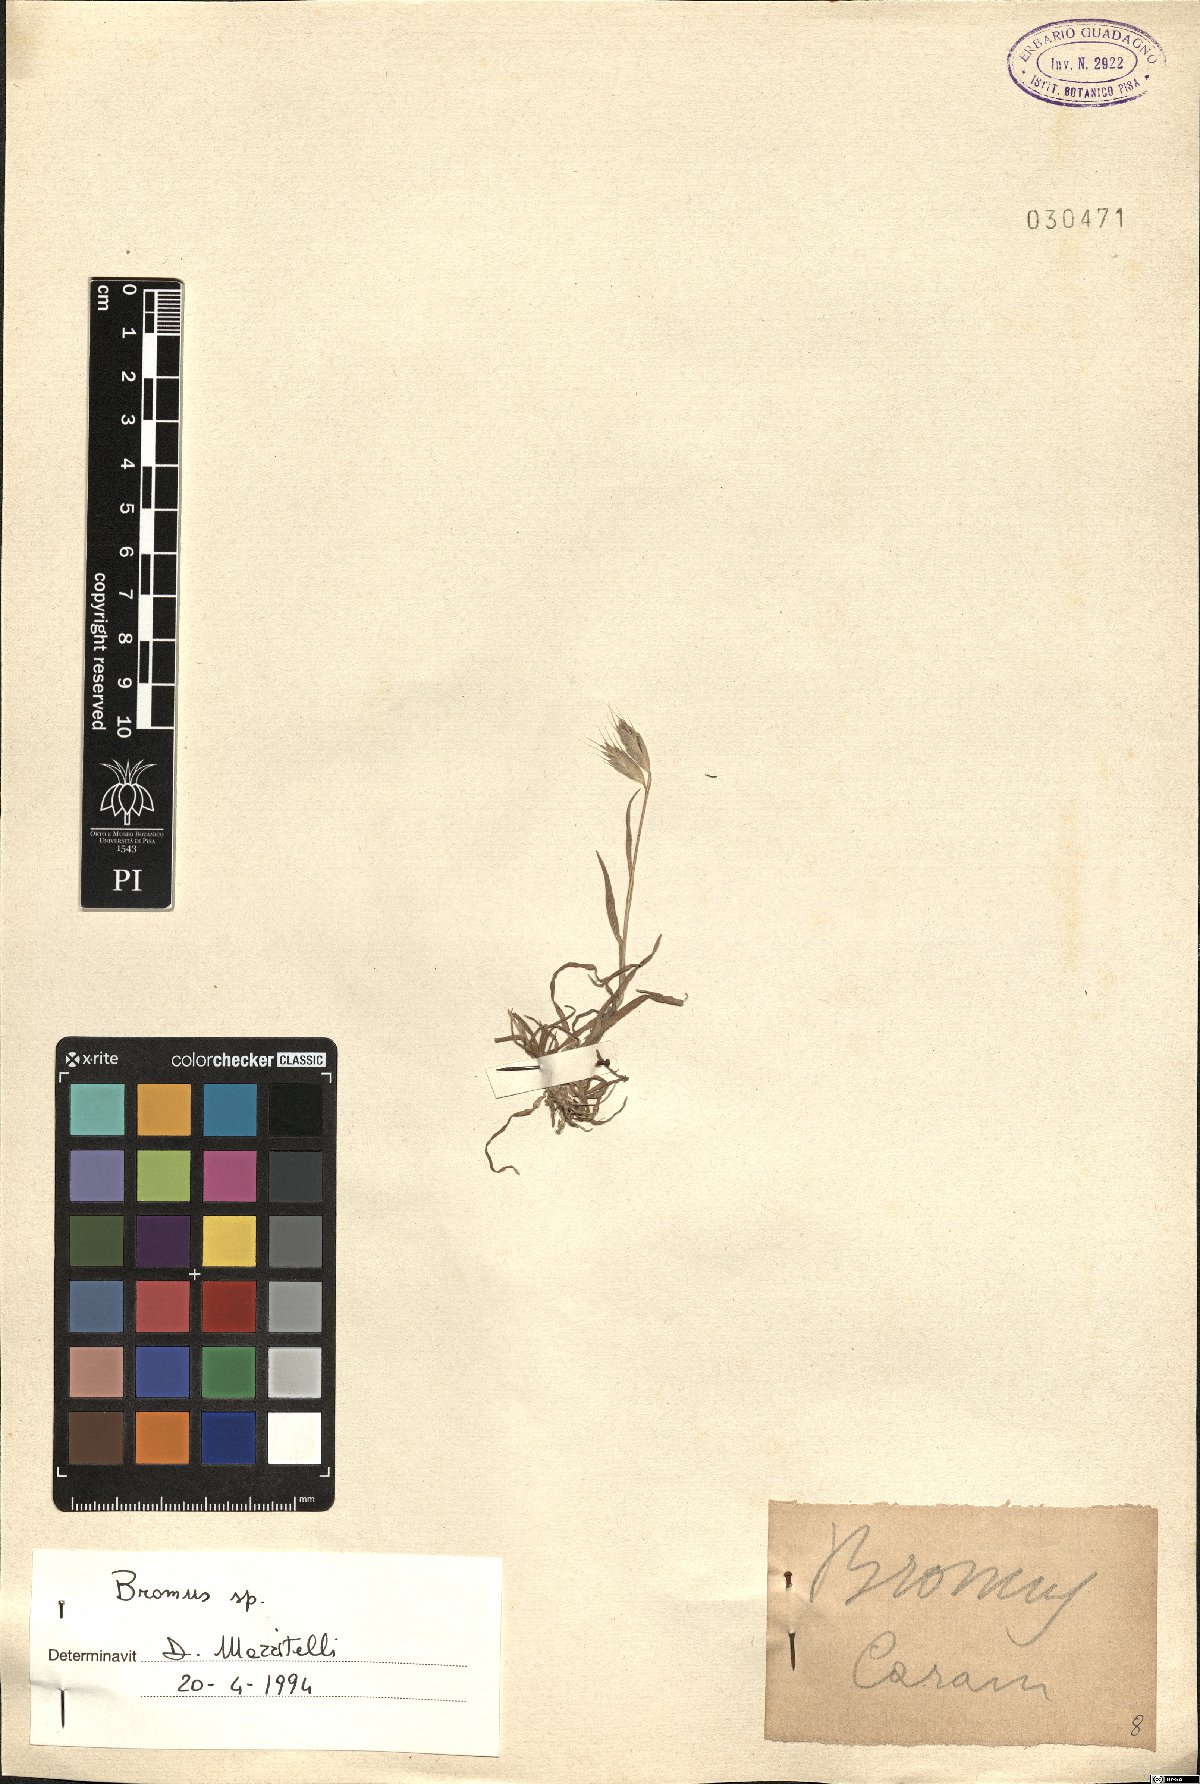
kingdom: Plantae
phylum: Tracheophyta
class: Liliopsida
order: Poales
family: Poaceae
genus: Bromus
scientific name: Bromus
